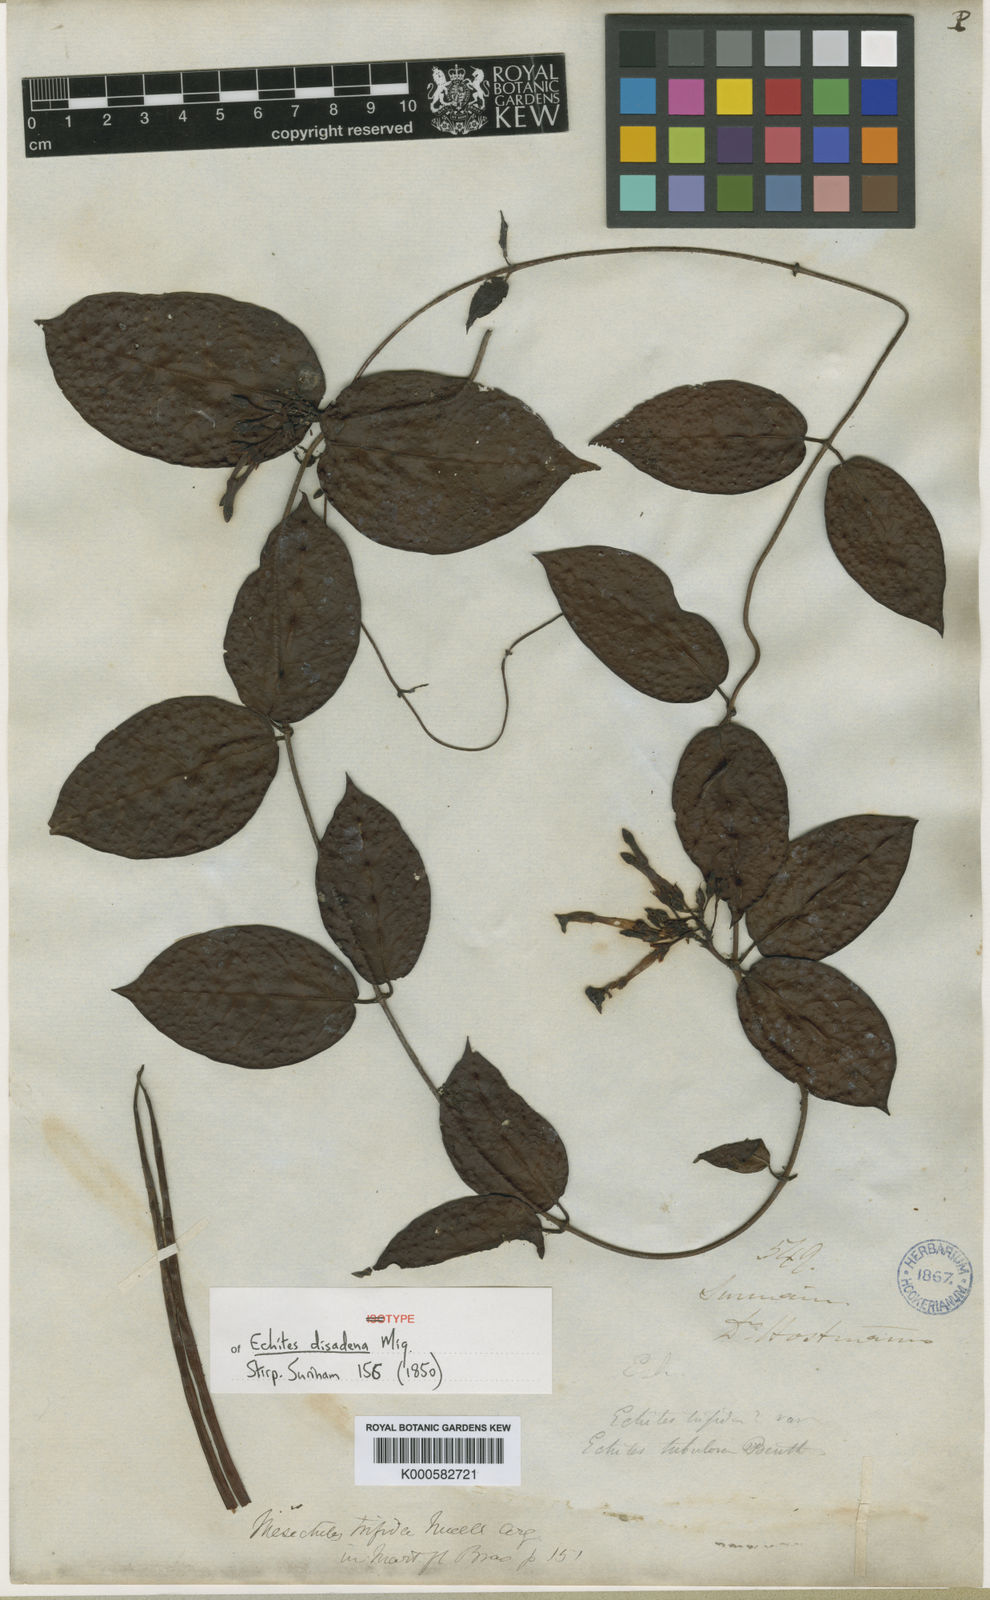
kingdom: Plantae
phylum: Tracheophyta
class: Magnoliopsida
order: Gentianales
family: Apocynaceae
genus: Mesechites
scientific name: Mesechites
